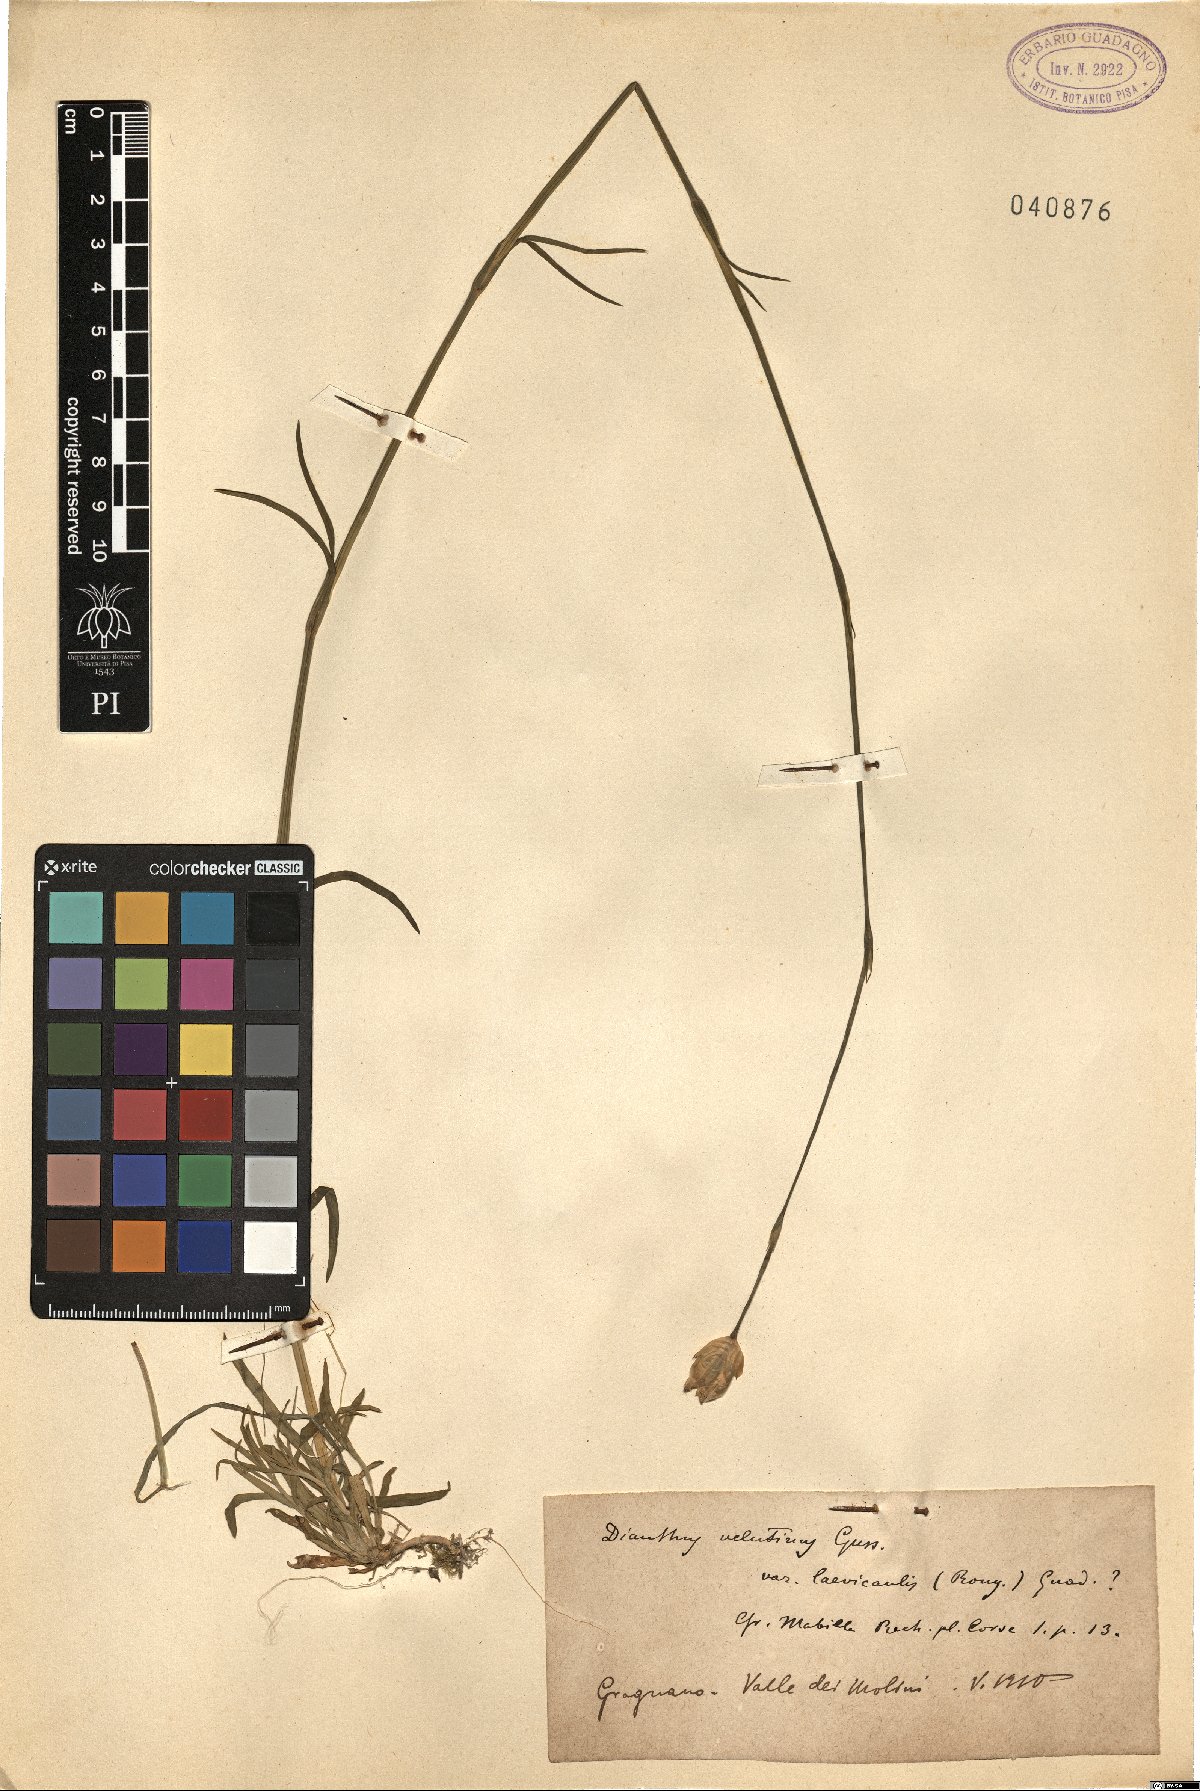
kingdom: Plantae
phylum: Tracheophyta
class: Magnoliopsida
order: Caryophyllales
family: Caryophyllaceae
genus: Petrorhagia
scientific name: Petrorhagia dubia
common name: Hairypink
